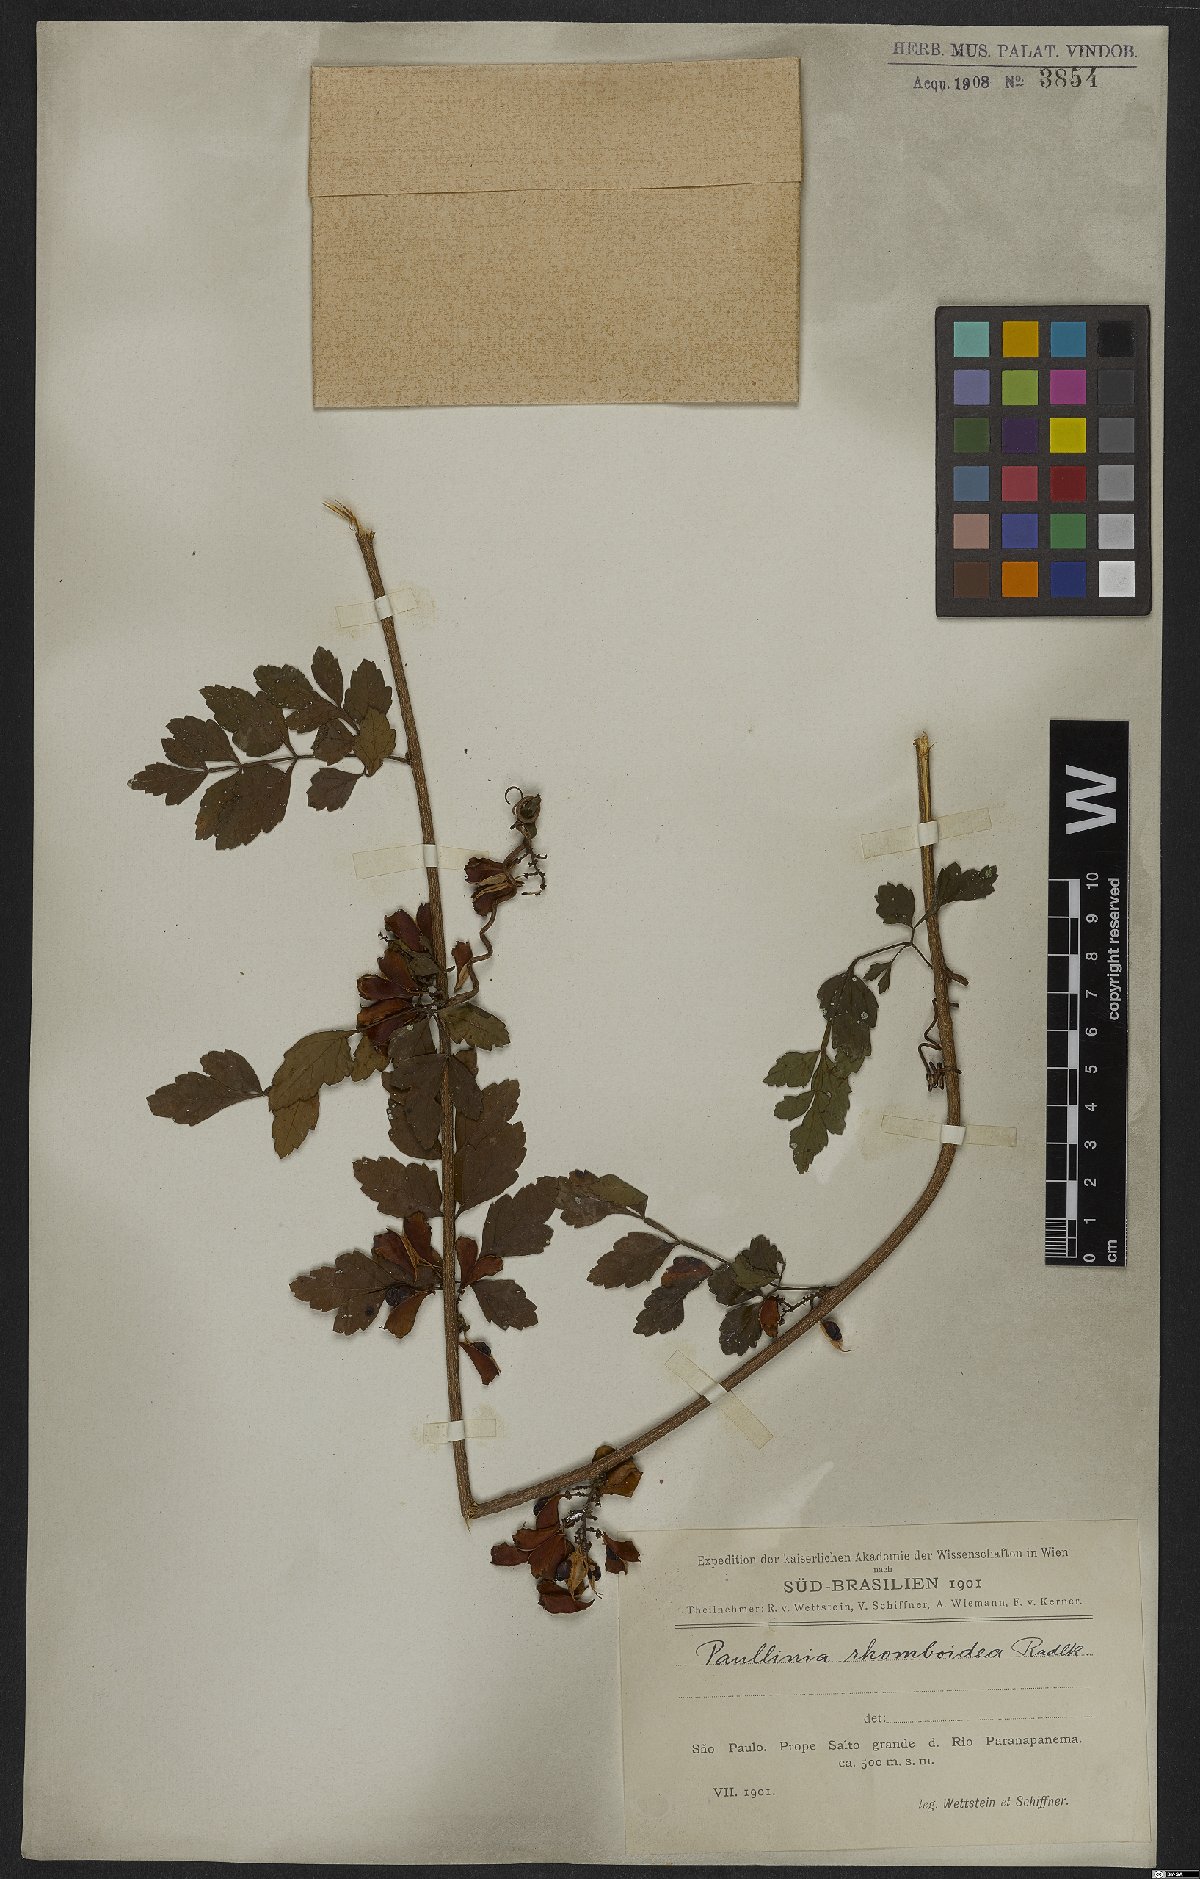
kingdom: Plantae
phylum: Tracheophyta
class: Magnoliopsida
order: Sapindales
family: Sapindaceae
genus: Paullinia
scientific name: Paullinia rhomboidea
